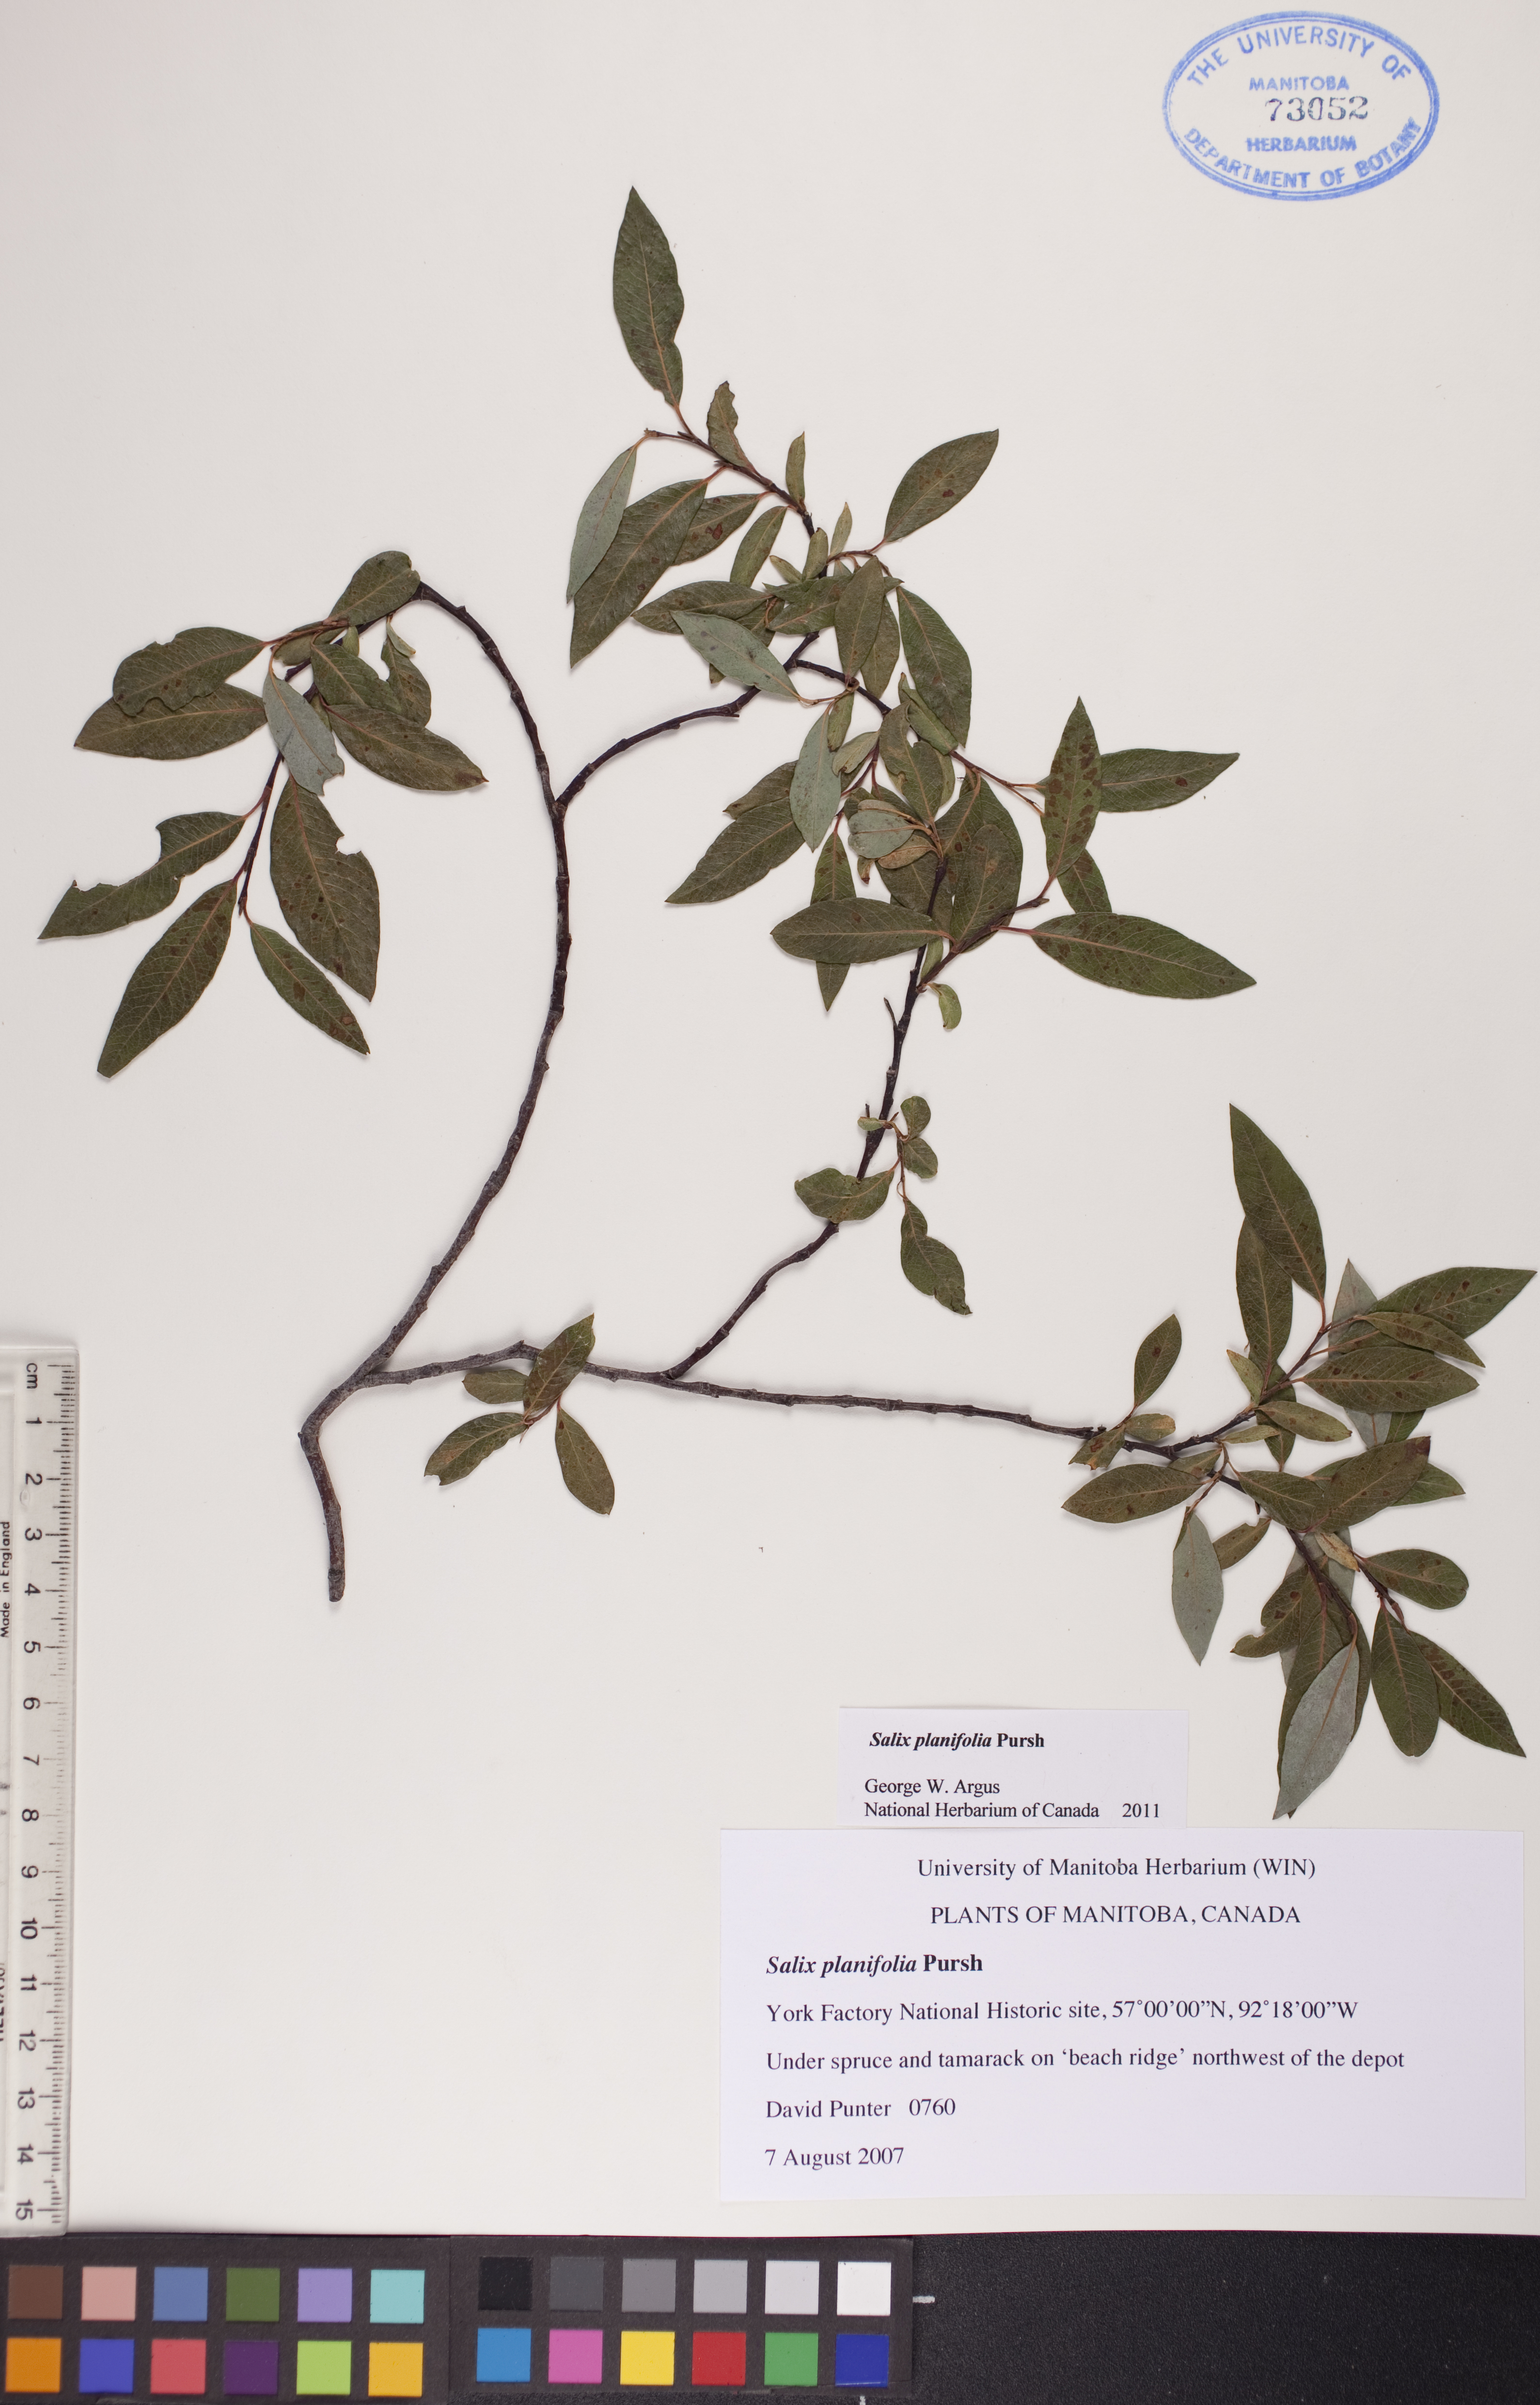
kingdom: Plantae
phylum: Tracheophyta
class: Magnoliopsida
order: Malpighiales
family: Salicaceae
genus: Salix
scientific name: Salix planifolia
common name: Mountain willow
